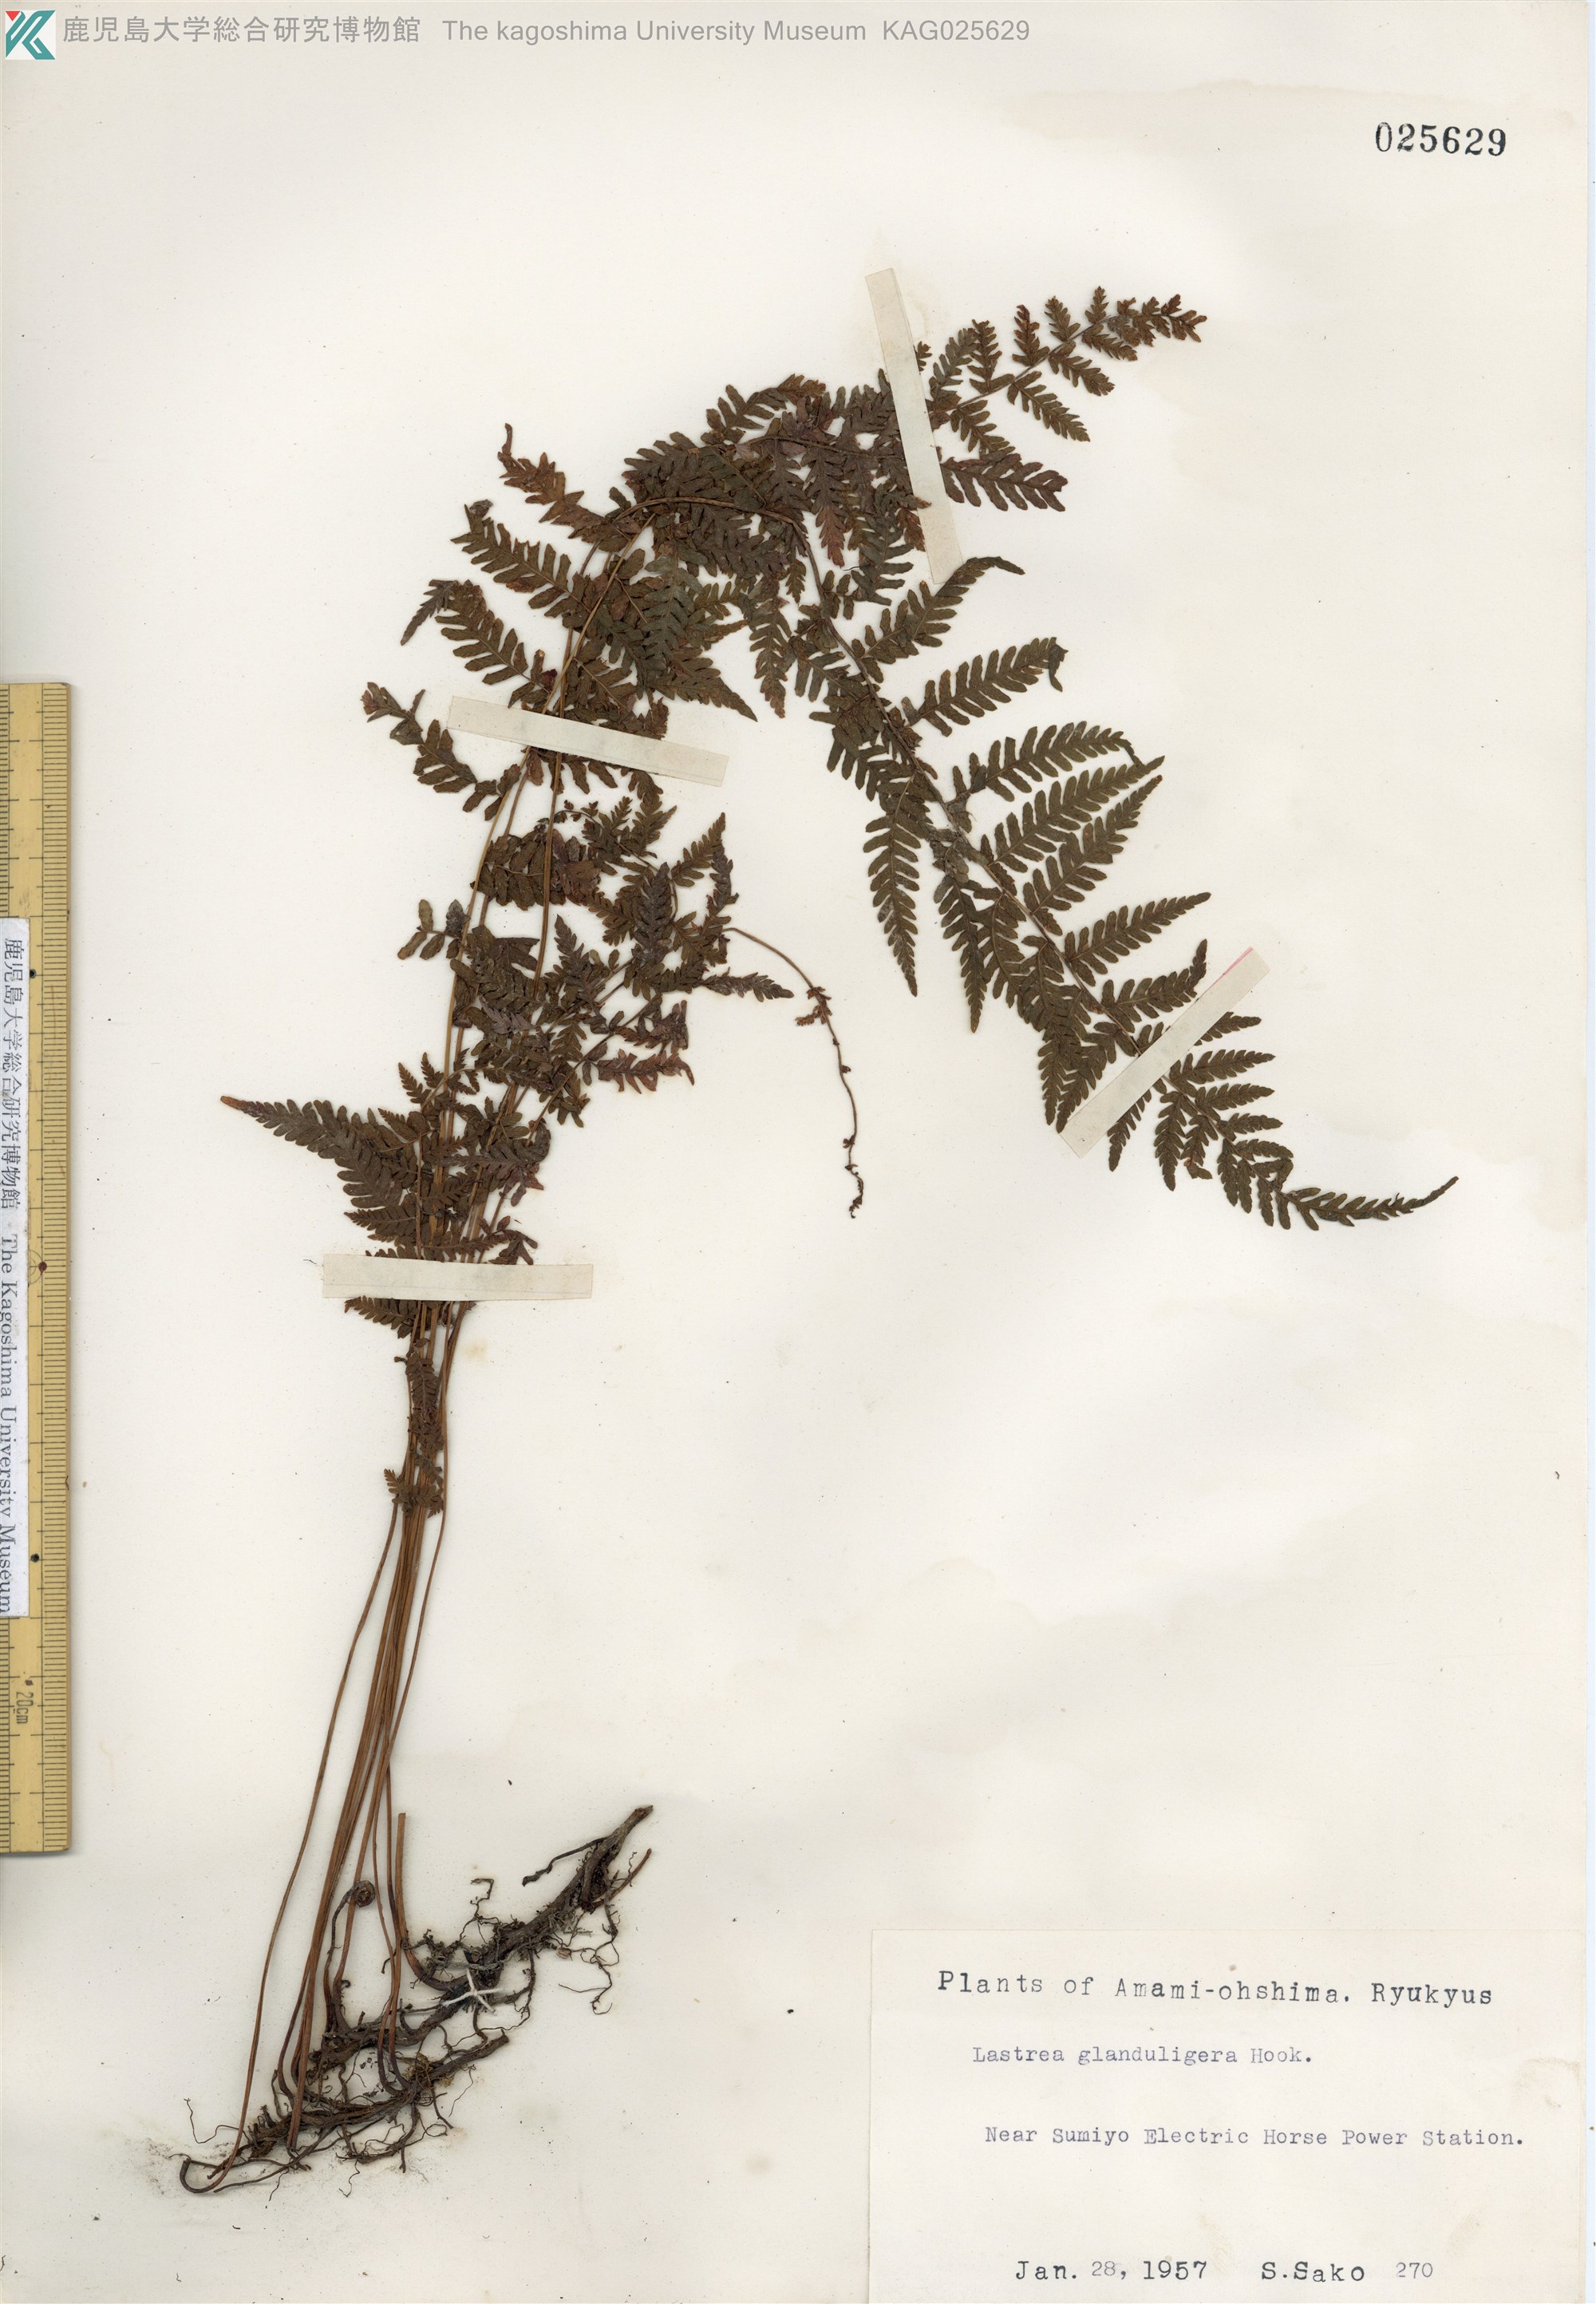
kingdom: Plantae
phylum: Tracheophyta
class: Polypodiopsida
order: Polypodiales
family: Thelypteridaceae
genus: Amauropelta
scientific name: Amauropelta angustifrons
